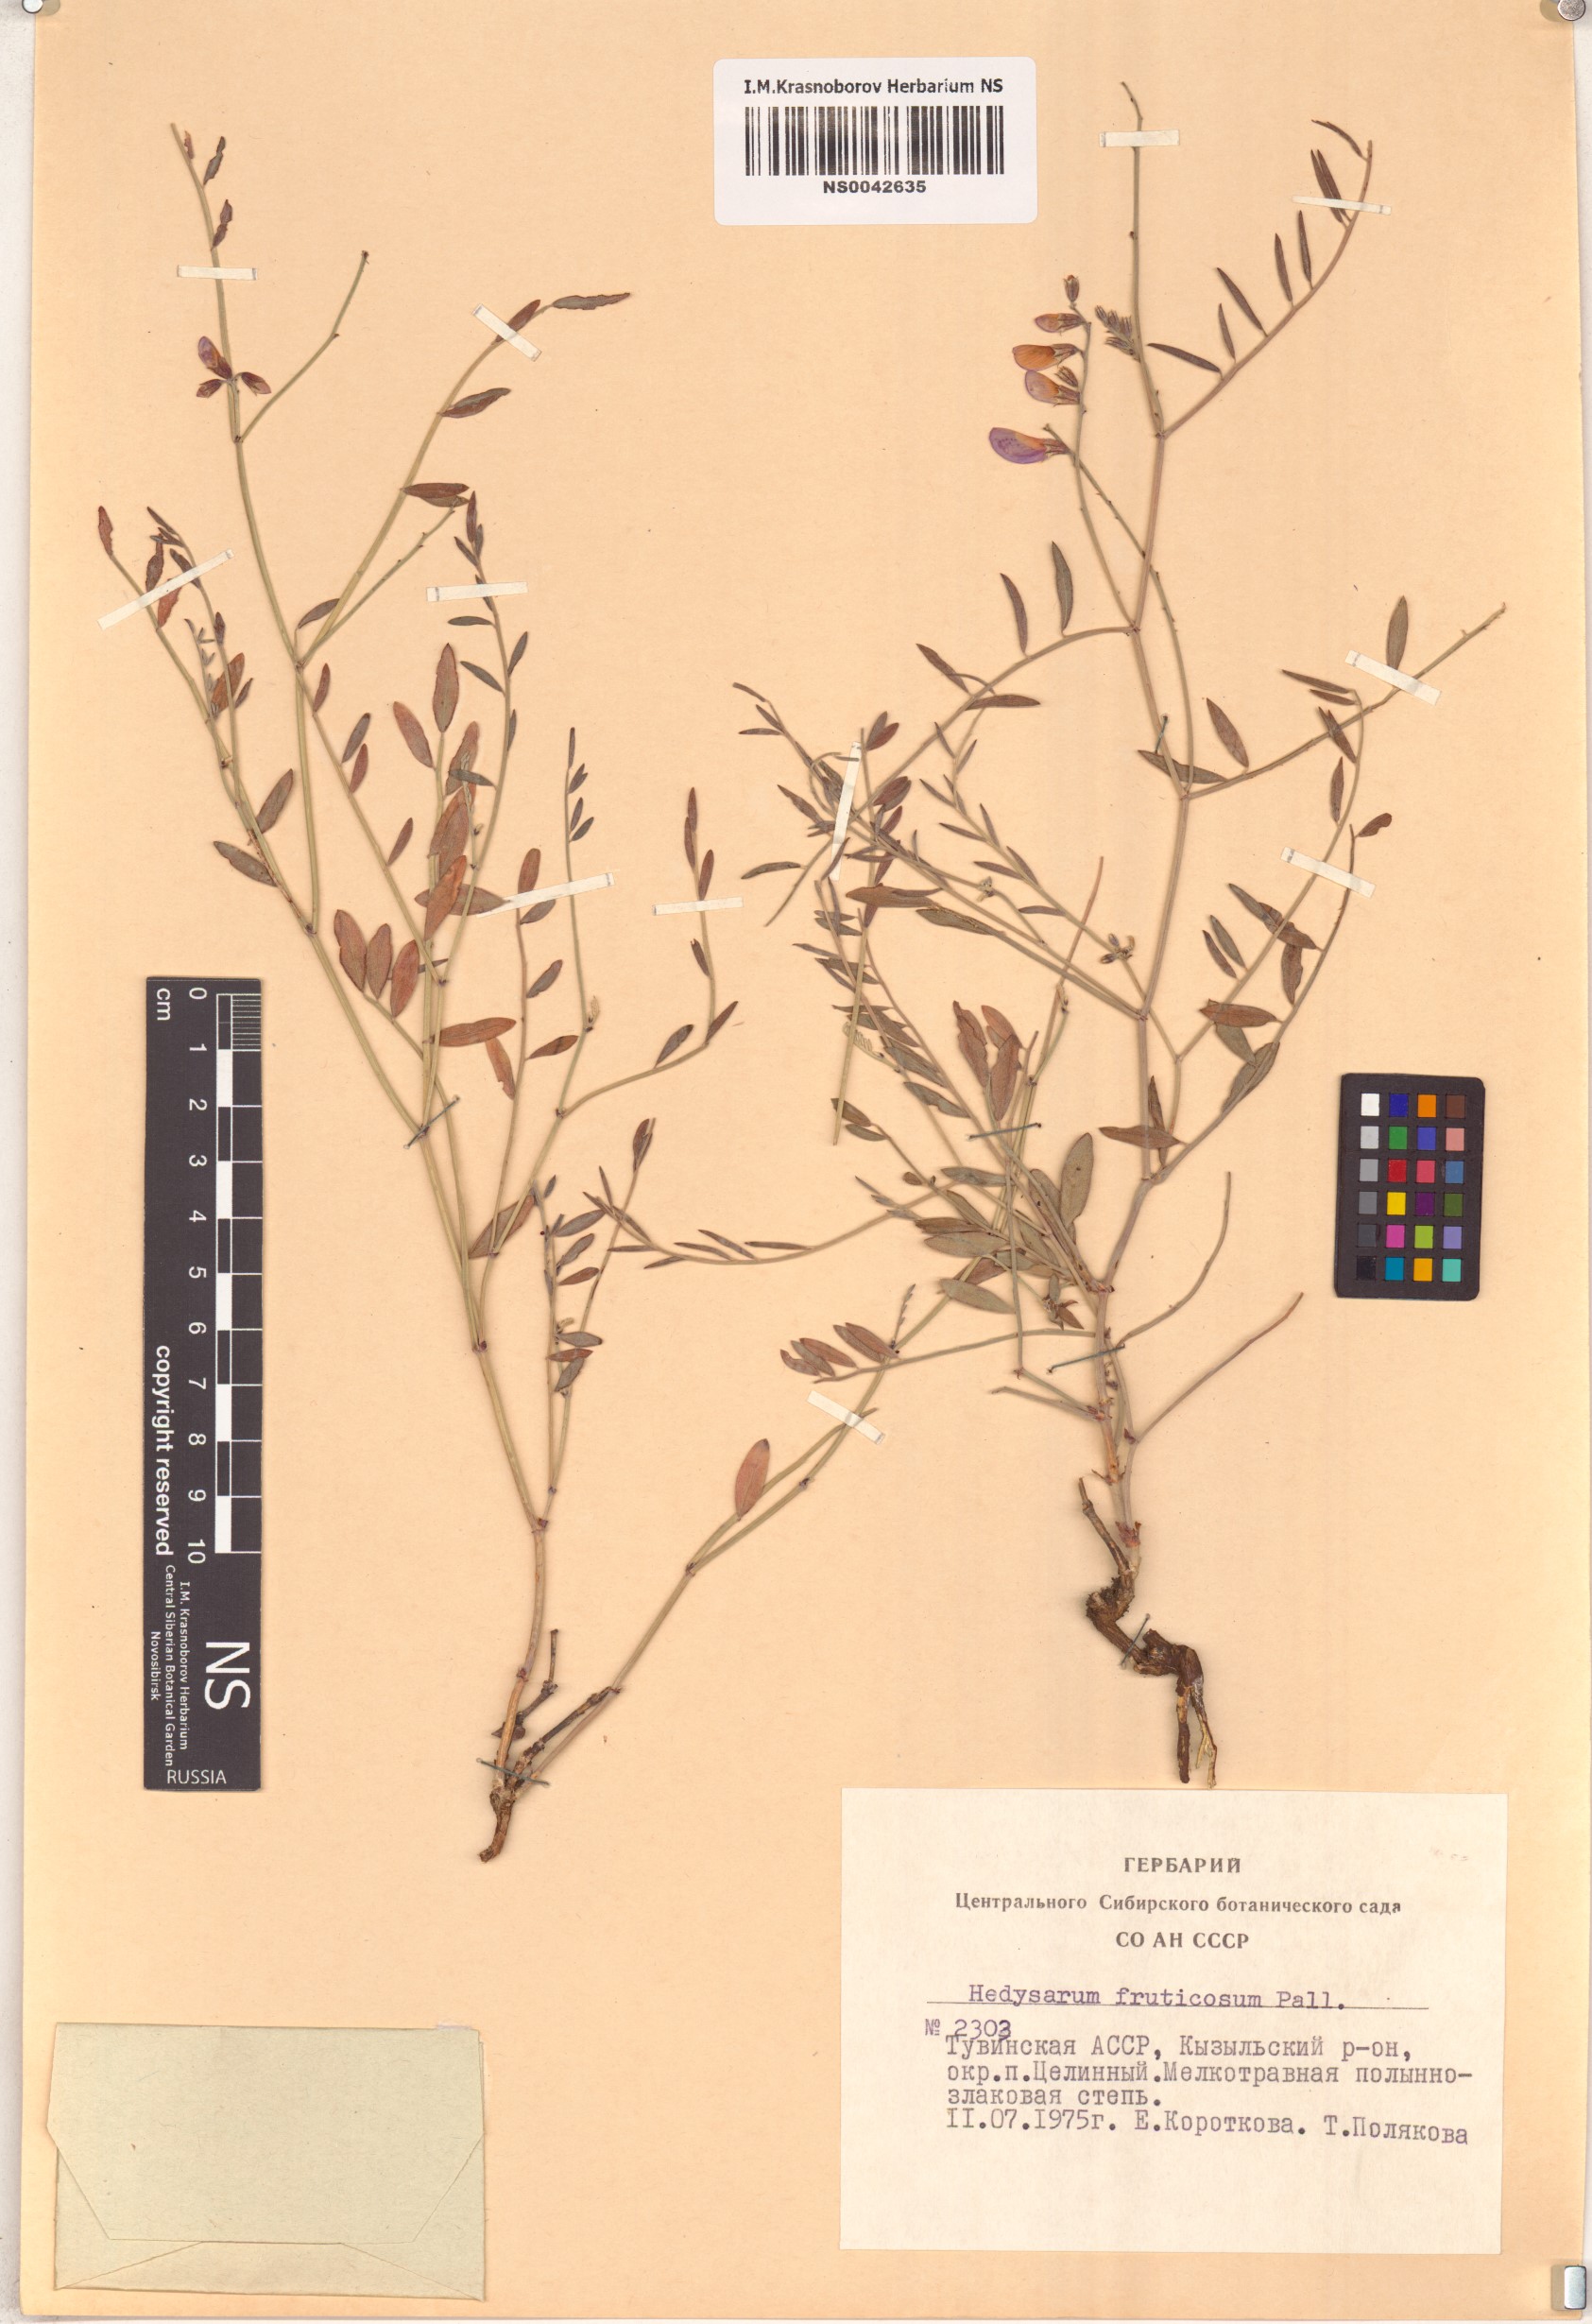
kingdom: Plantae
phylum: Tracheophyta
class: Magnoliopsida
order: Fabales
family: Fabaceae
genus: Corethrodendron
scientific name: Corethrodendron fruticosum
